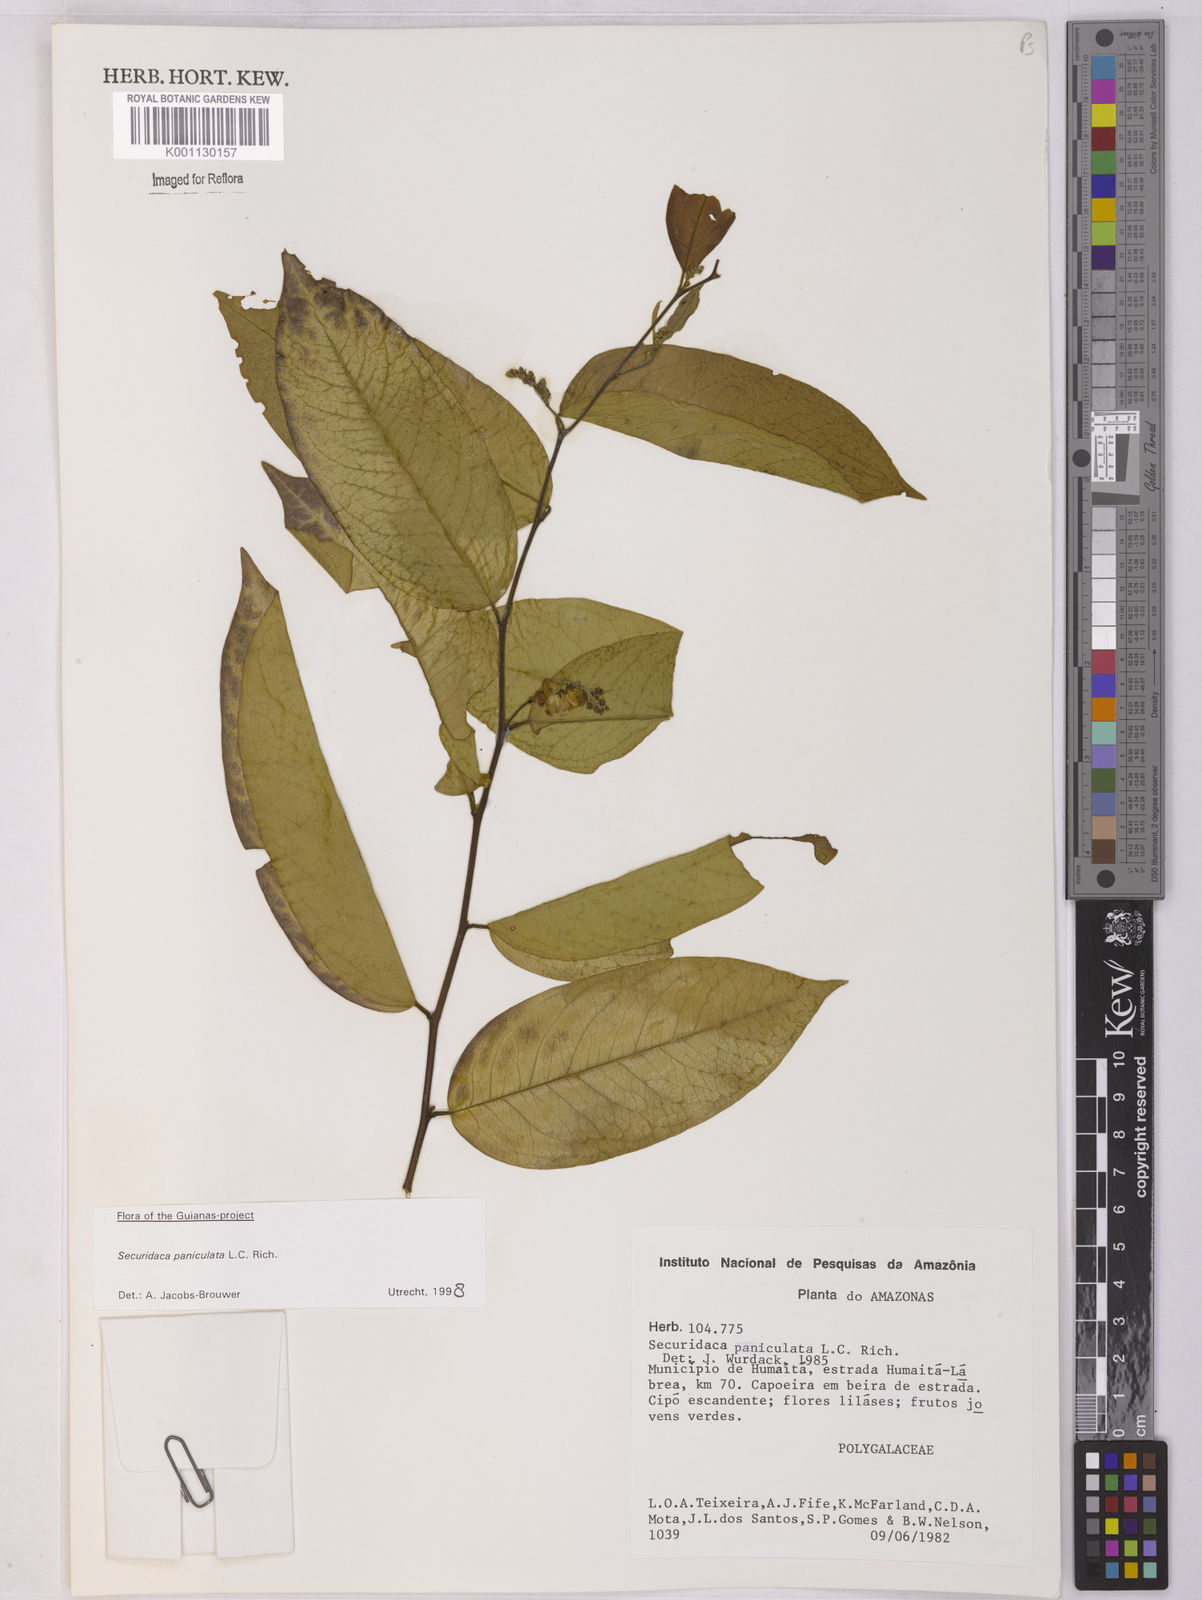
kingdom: Plantae
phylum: Tracheophyta
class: Magnoliopsida
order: Fabales
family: Polygalaceae
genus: Securidaca
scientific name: Securidaca paniculata
